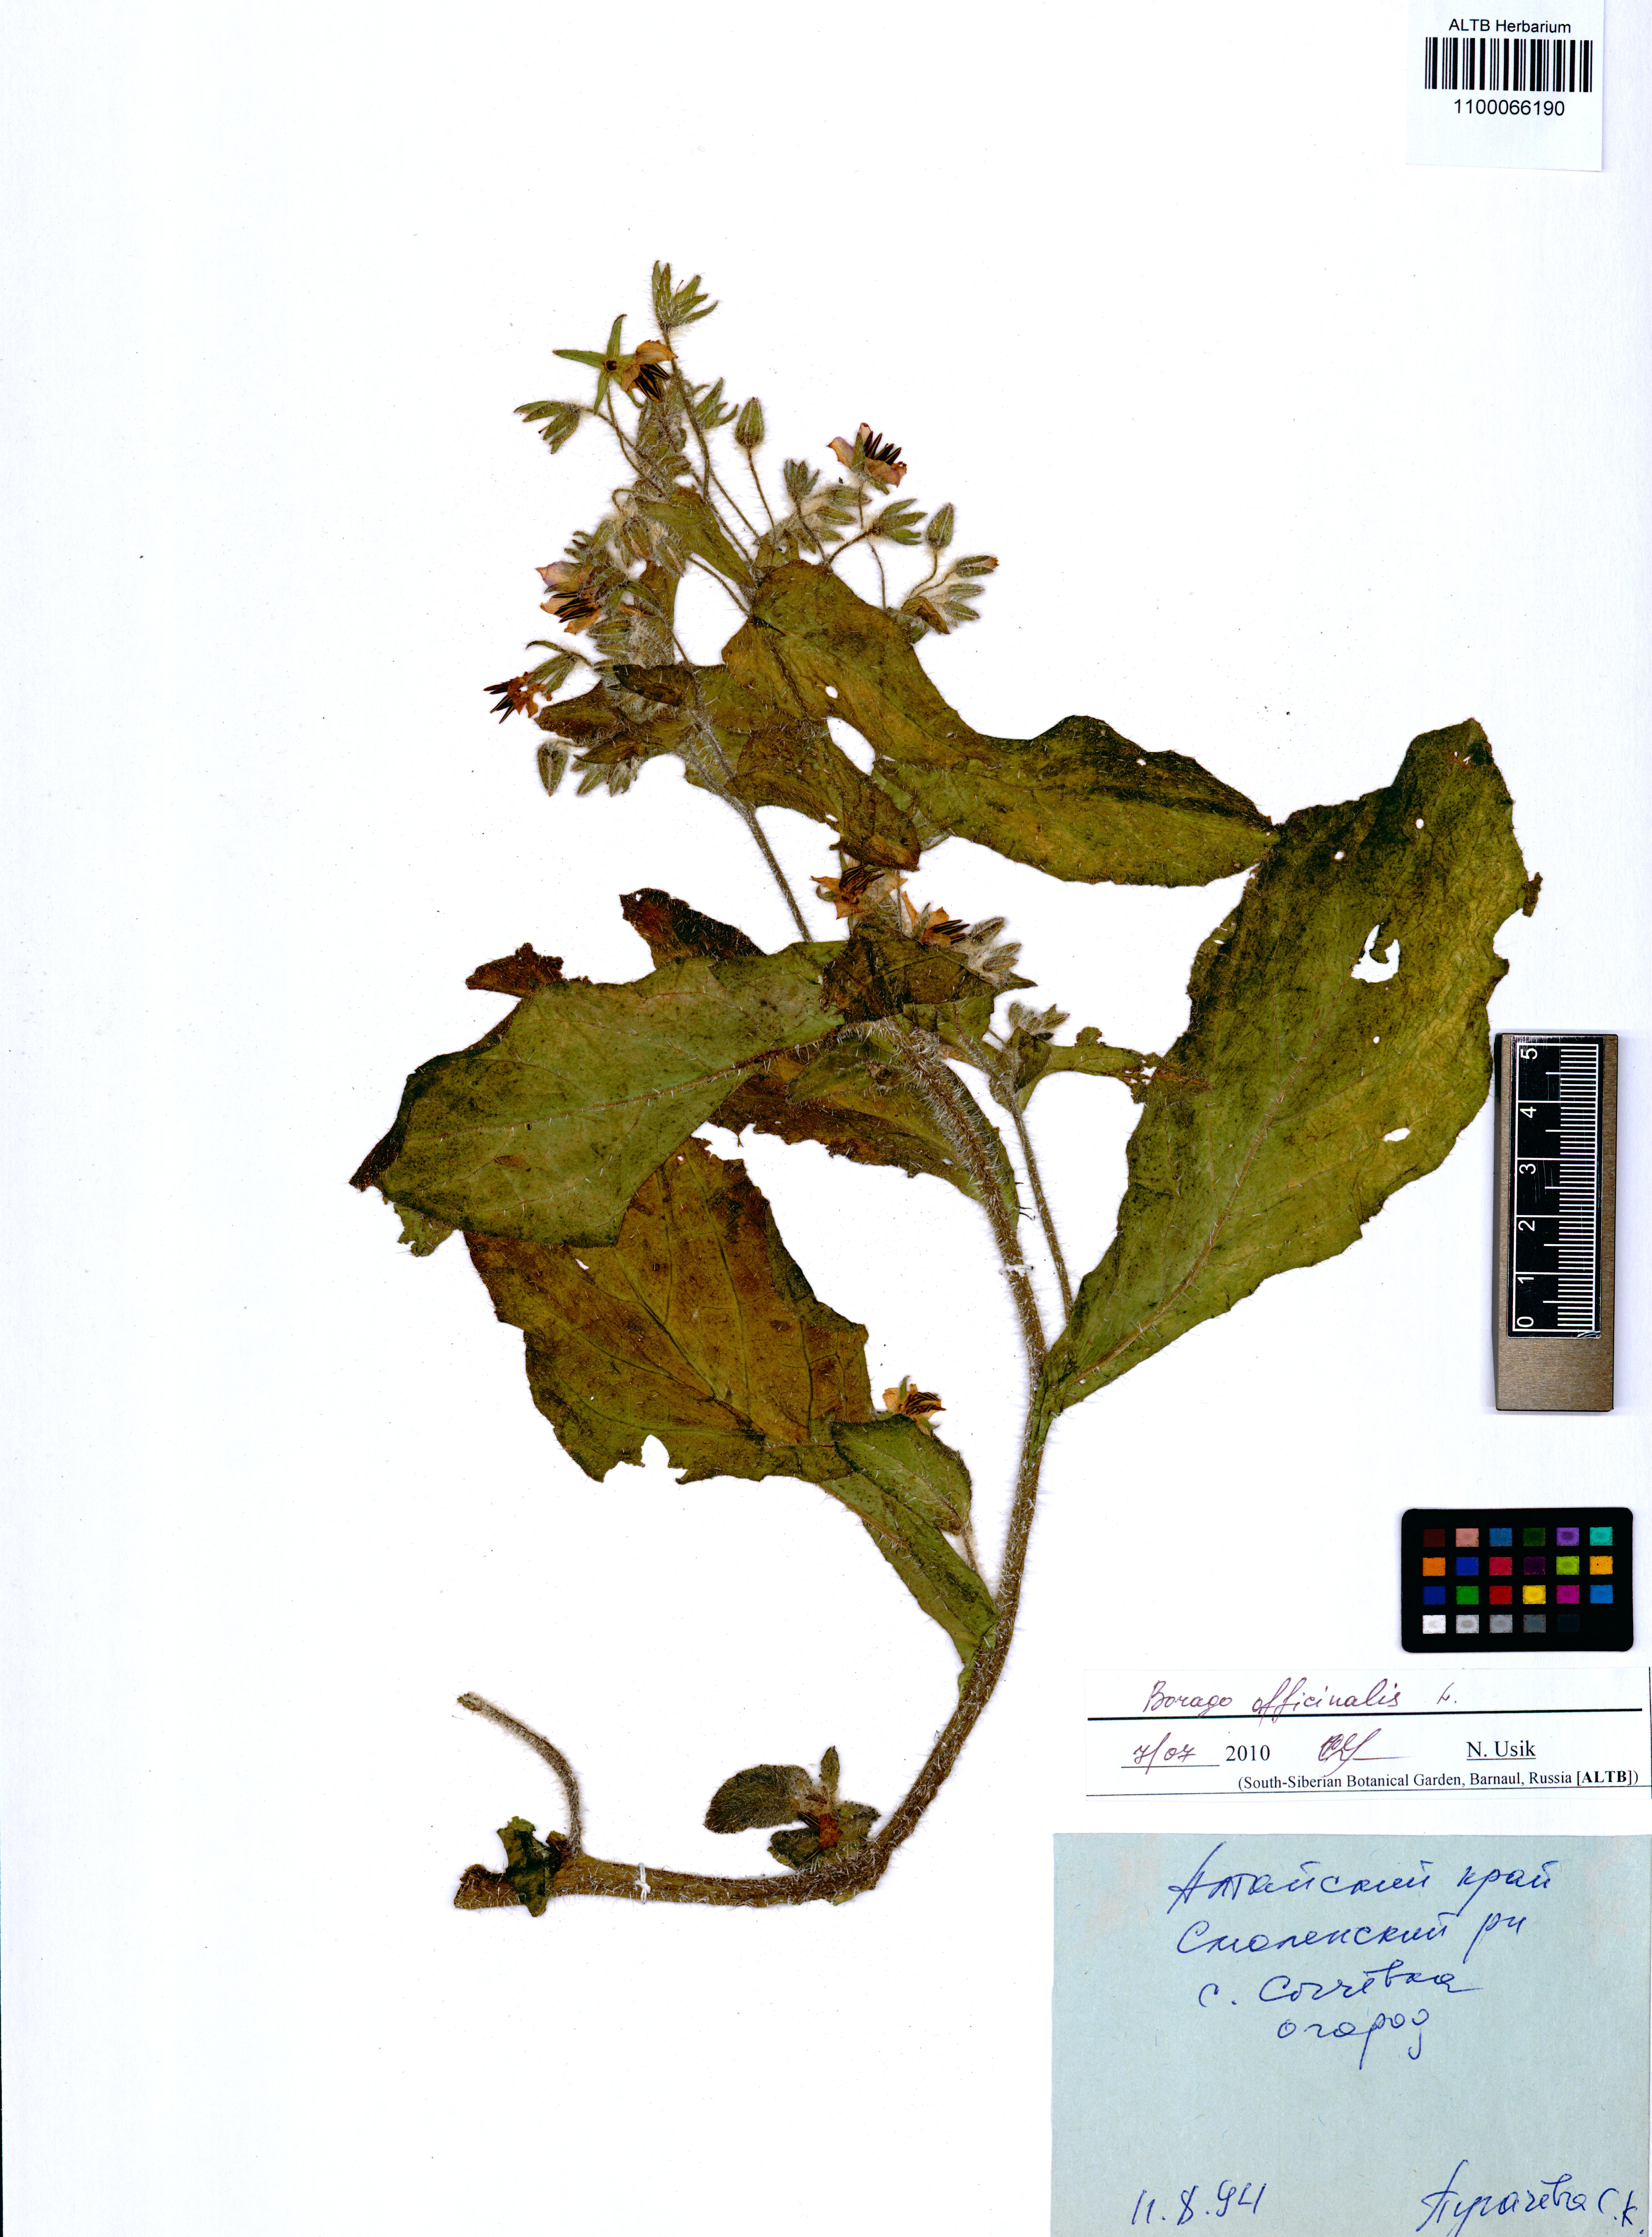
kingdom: Plantae
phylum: Tracheophyta
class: Magnoliopsida
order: Boraginales
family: Boraginaceae
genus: Borago
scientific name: Borago officinalis
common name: Borage
